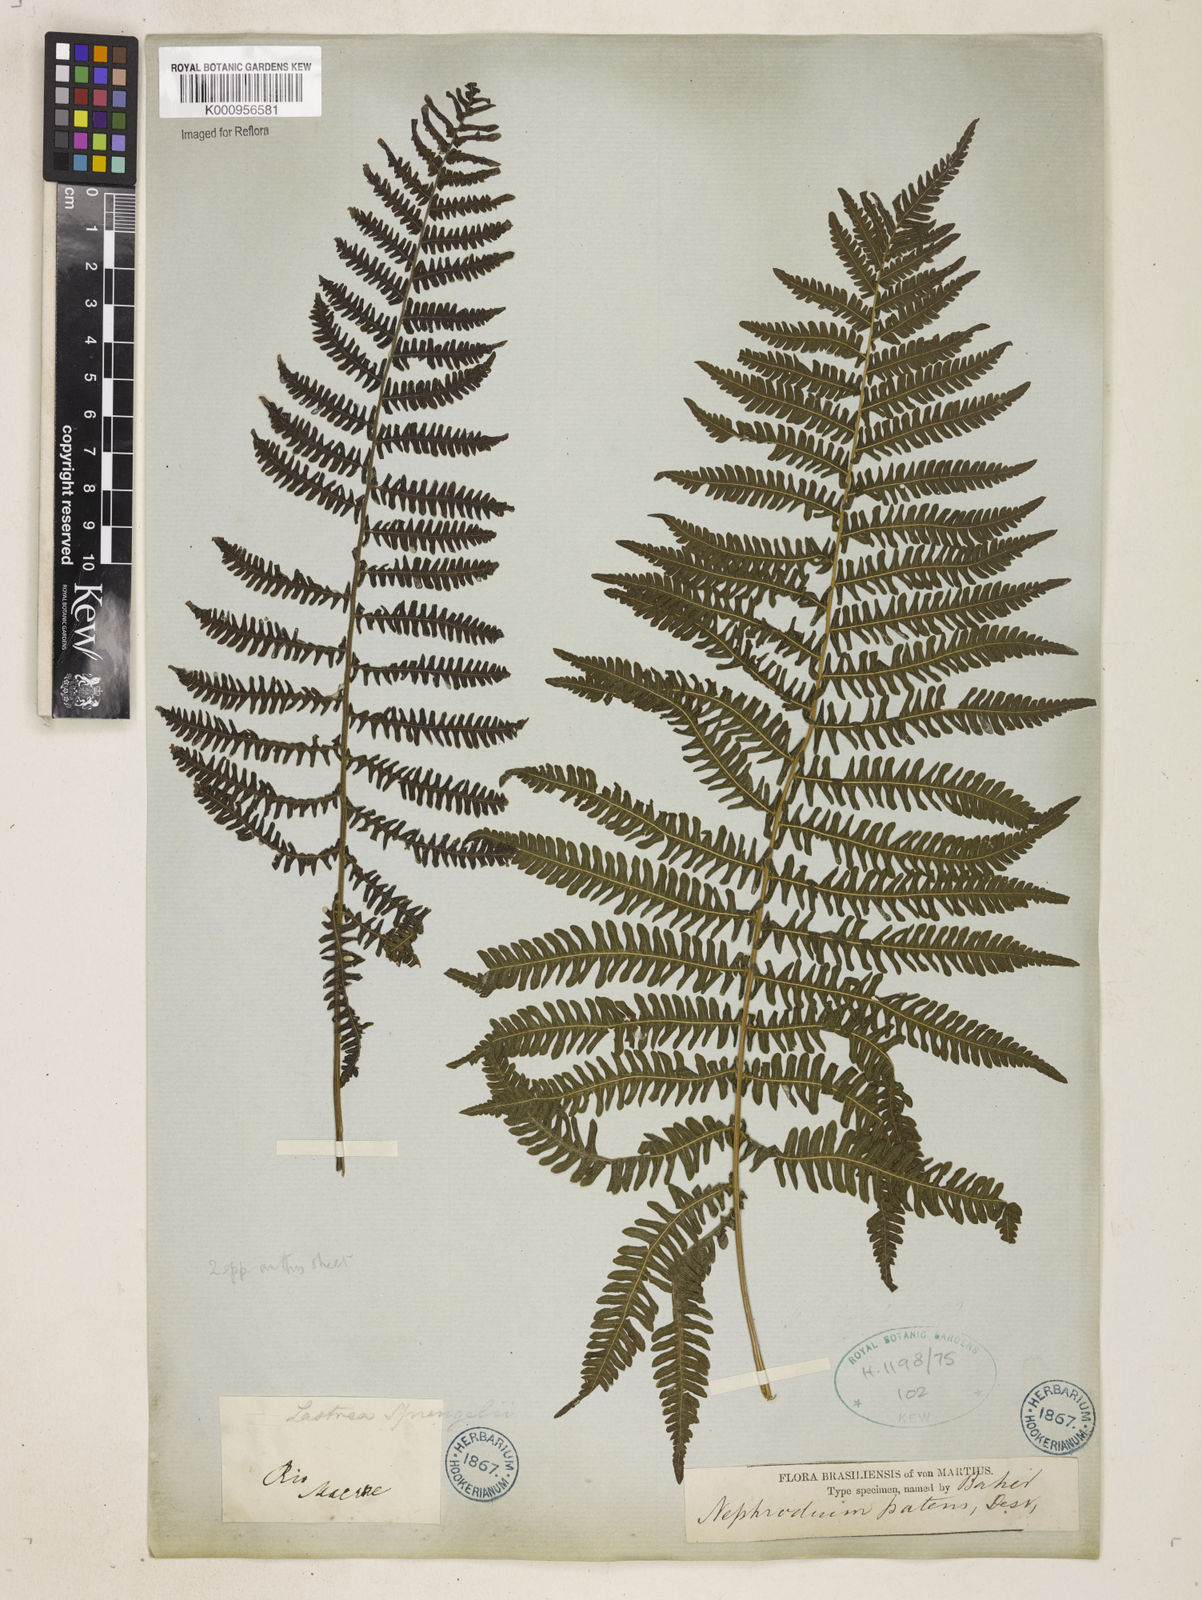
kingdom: Plantae
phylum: Tracheophyta
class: Polypodiopsida
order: Polypodiales
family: Thelypteridaceae
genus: Pelazoneuron
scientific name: Pelazoneuron patens
